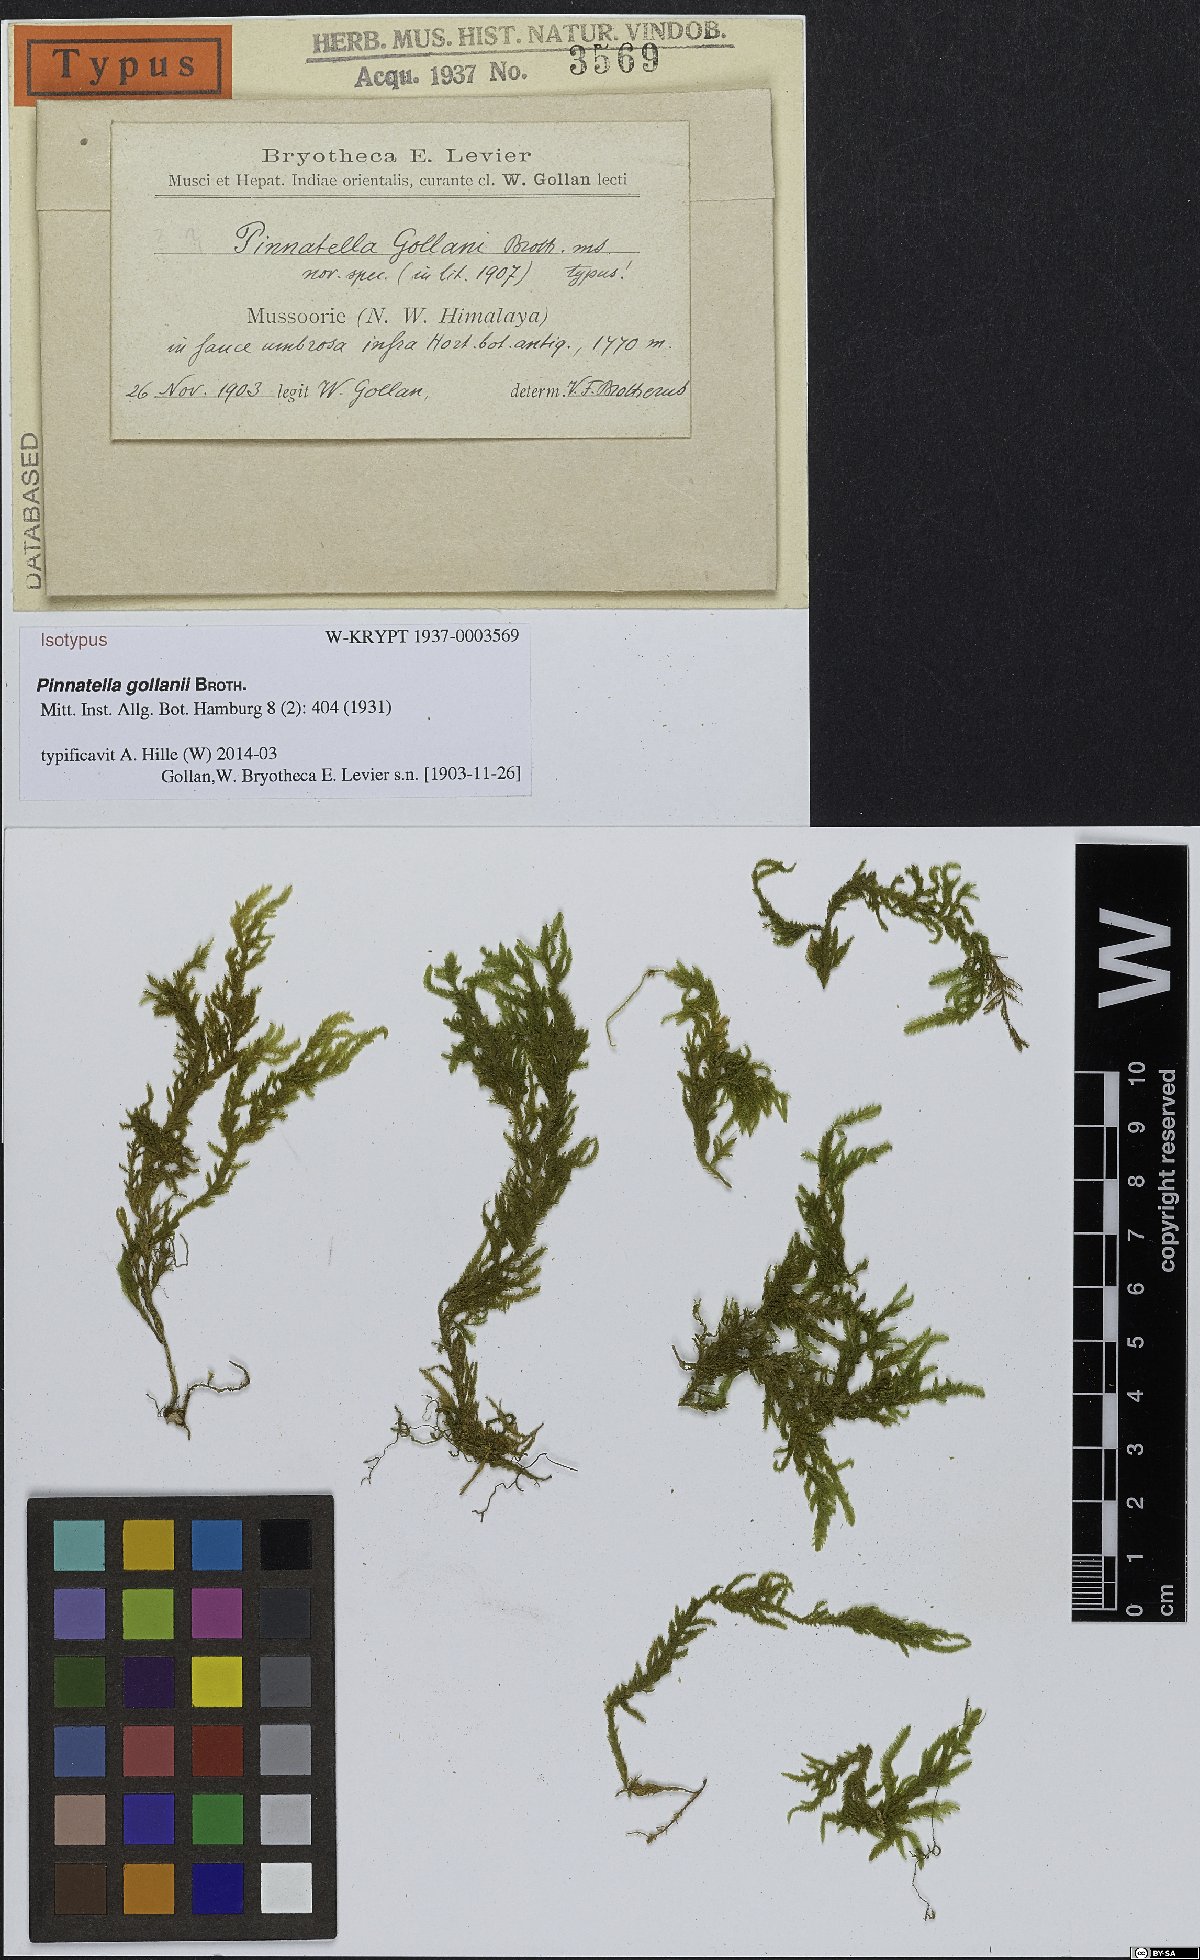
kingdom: Plantae
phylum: Bryophyta
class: Bryopsida
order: Hypnales
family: Neckeraceae
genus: Pinnatella
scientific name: Pinnatella gollanii
